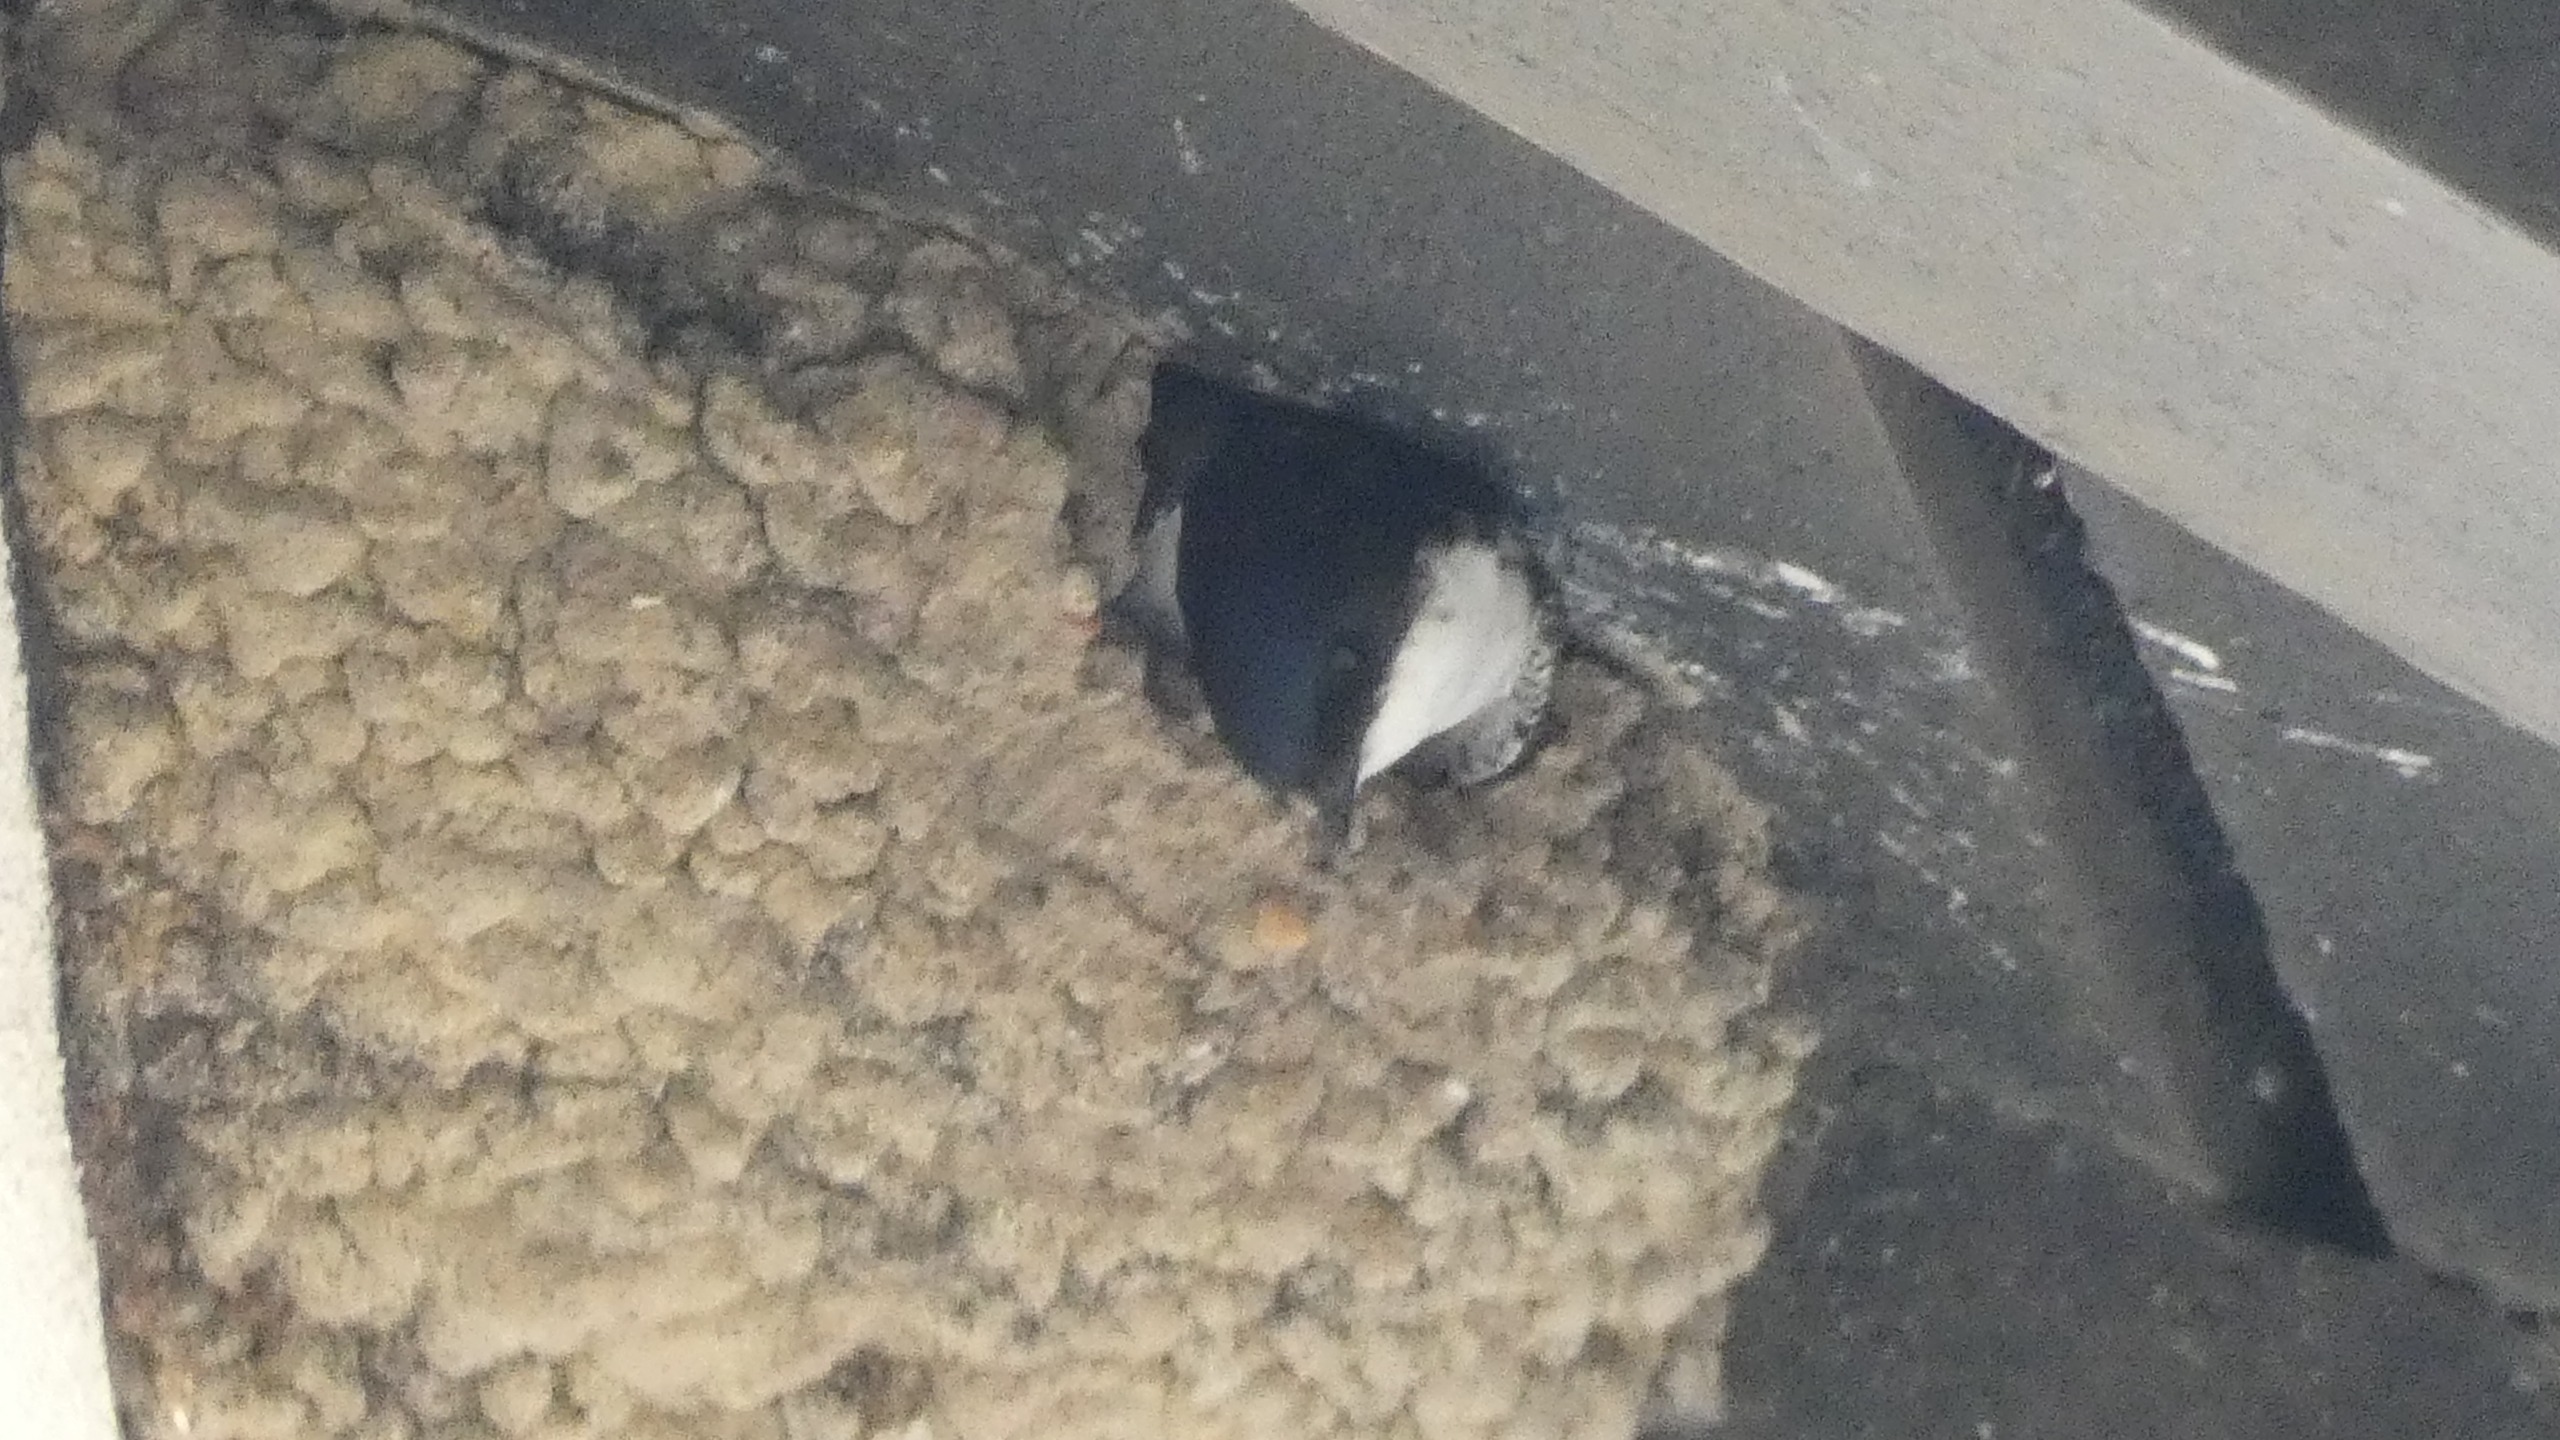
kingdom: Animalia
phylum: Chordata
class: Aves
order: Passeriformes
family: Hirundinidae
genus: Delichon
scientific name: Delichon urbicum
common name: Bysvale
